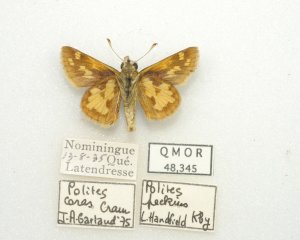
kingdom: Animalia
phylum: Arthropoda
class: Insecta
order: Lepidoptera
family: Hesperiidae
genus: Polites
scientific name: Polites coras
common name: Peck's Skipper
